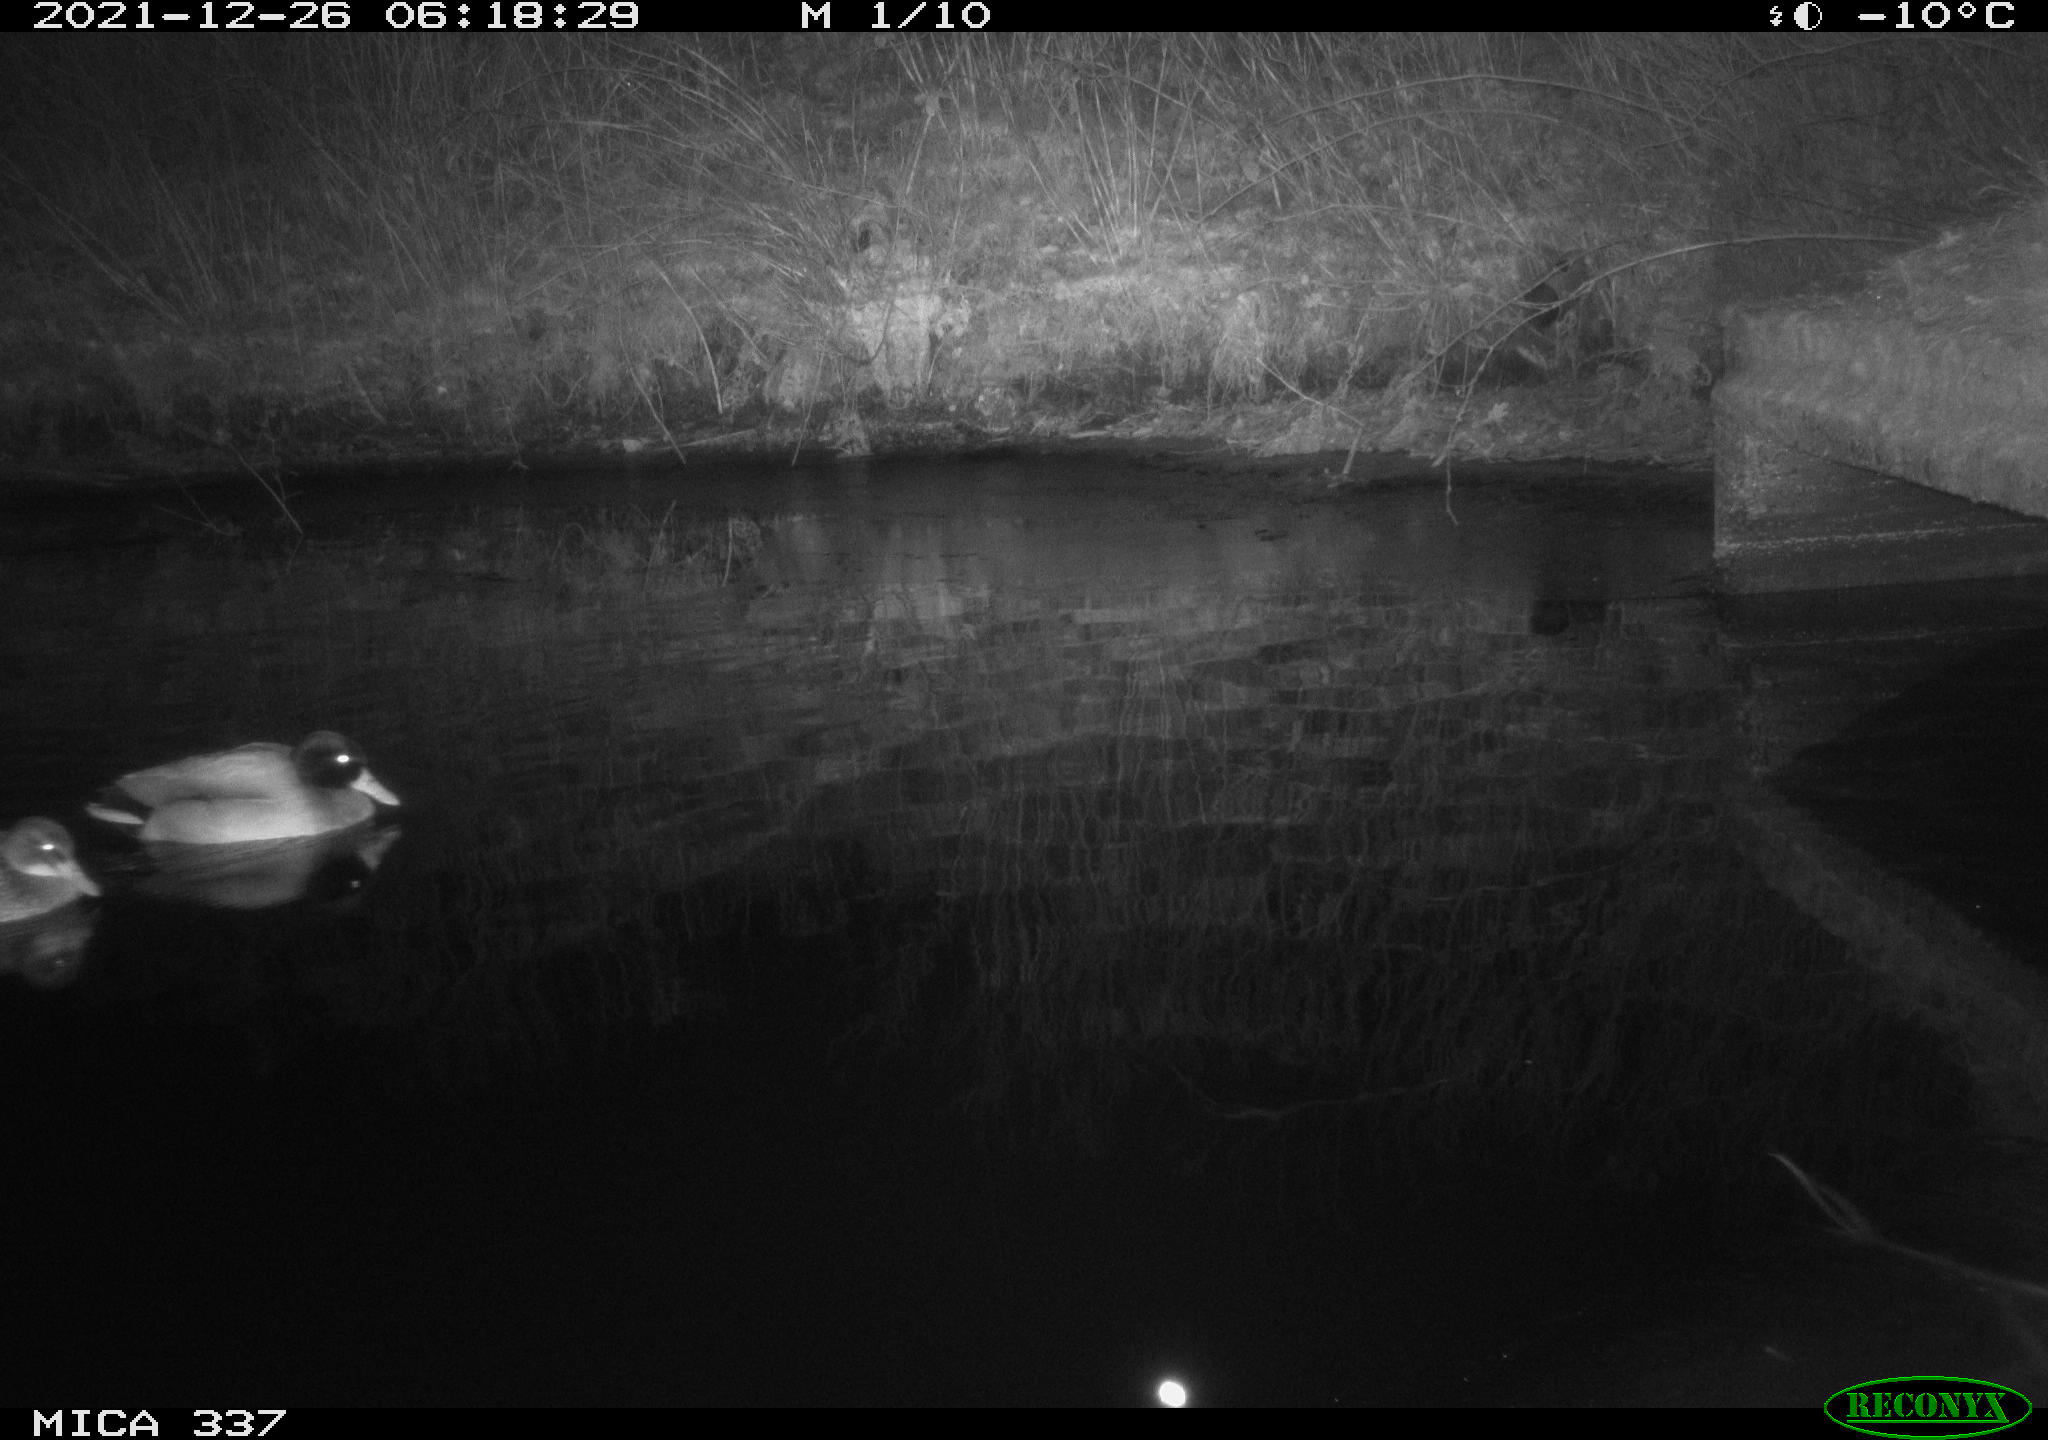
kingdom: Animalia
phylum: Chordata
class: Aves
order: Anseriformes
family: Anatidae
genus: Anas
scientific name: Anas platyrhynchos
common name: Mallard
